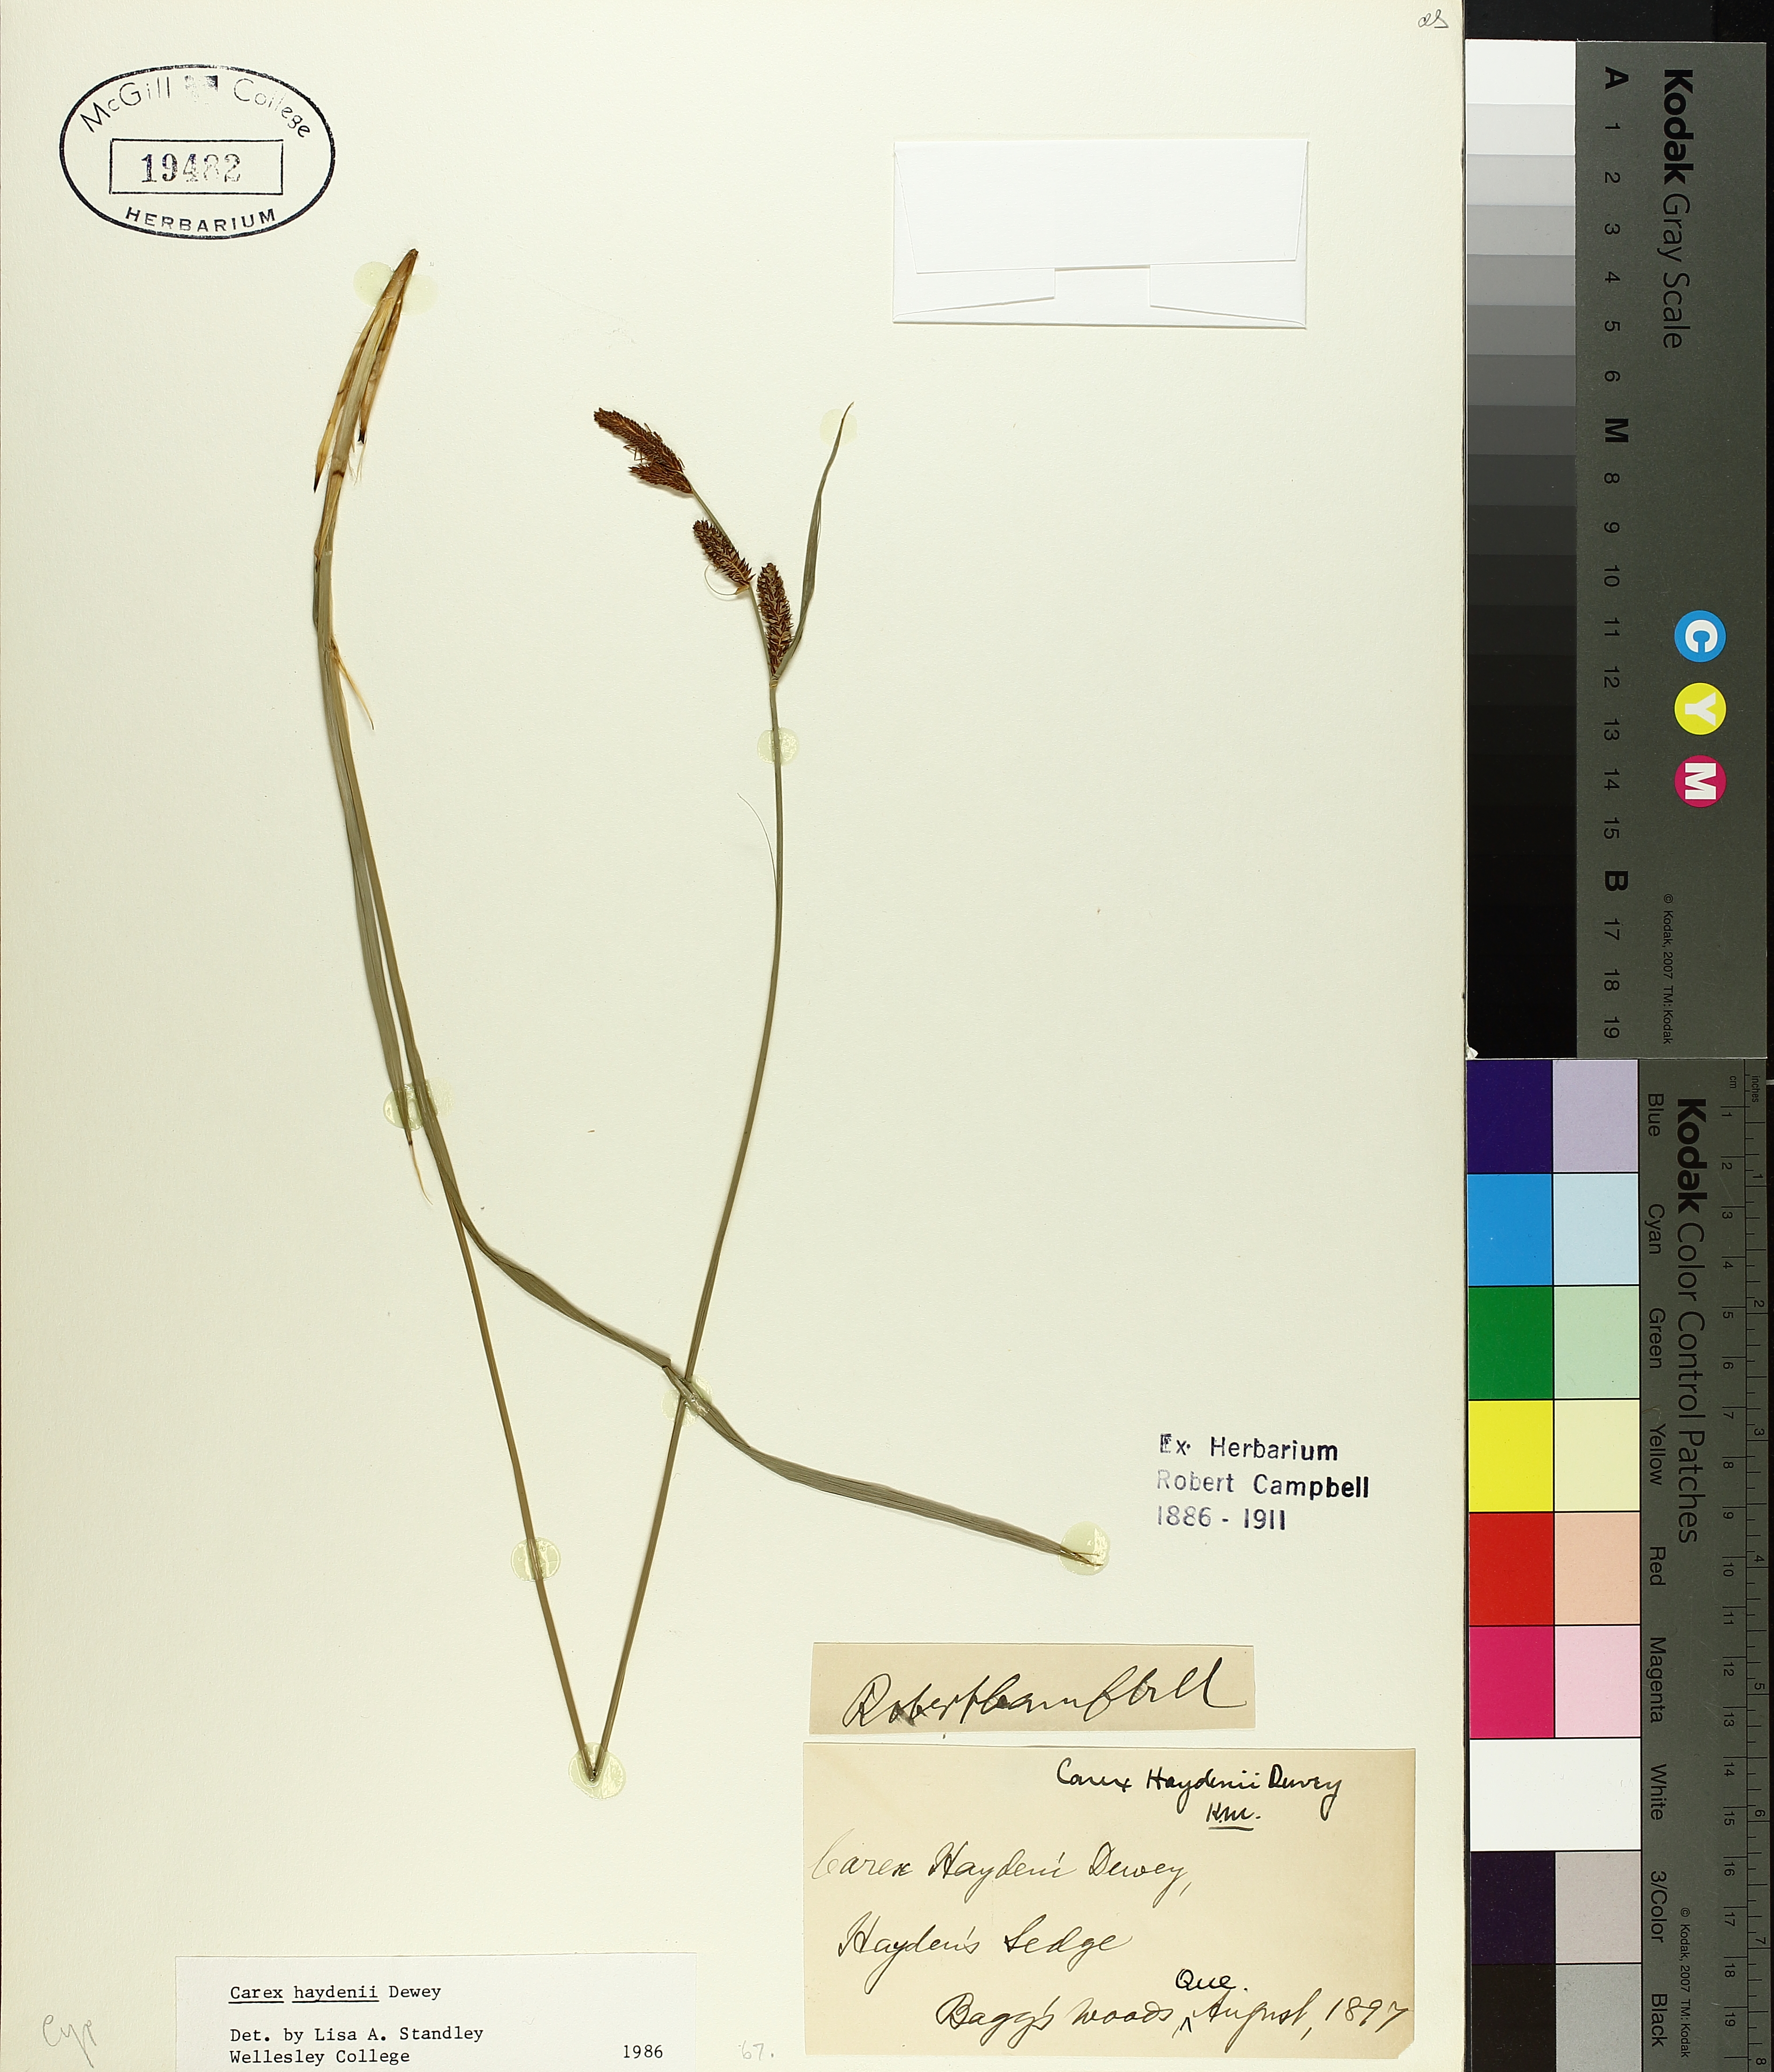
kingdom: Plantae
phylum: Tracheophyta
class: Liliopsida
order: Poales
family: Cyperaceae
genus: Carex
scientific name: Carex haydenii
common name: Hayden's sedge
